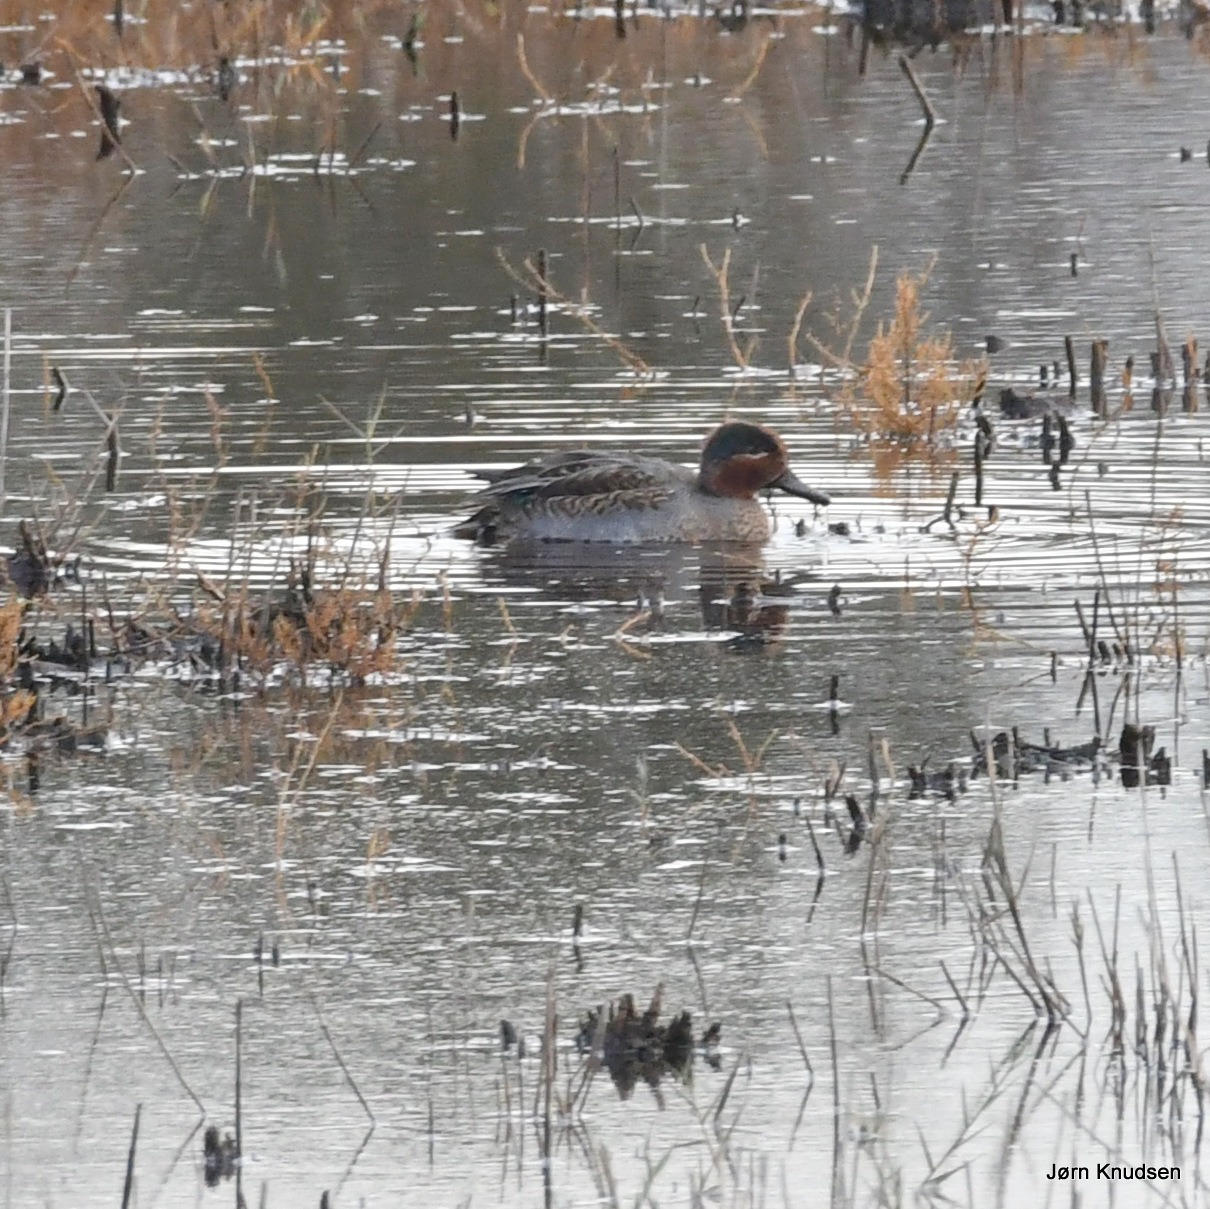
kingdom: Animalia
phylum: Chordata
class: Aves
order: Anseriformes
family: Anatidae
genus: Anas
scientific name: Anas crecca
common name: Krikand
